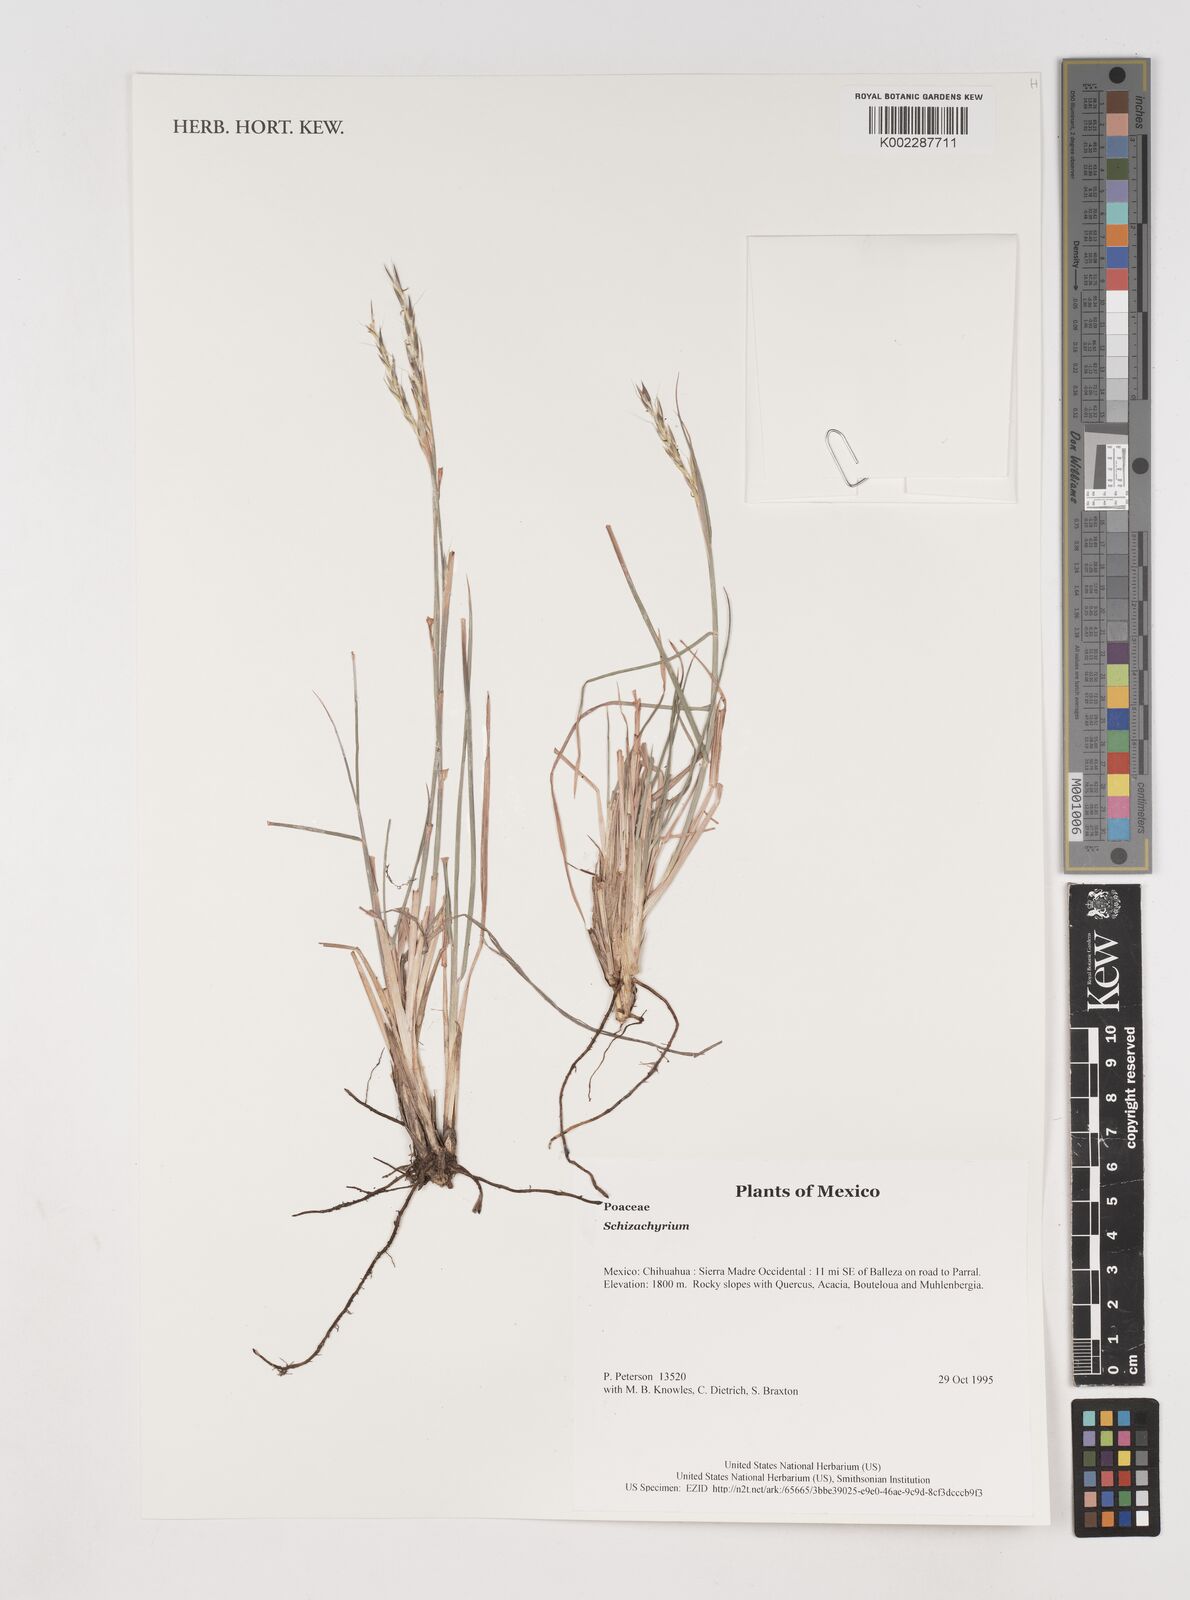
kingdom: Plantae
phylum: Tracheophyta
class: Liliopsida
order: Poales
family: Poaceae
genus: Schizachyrium
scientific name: Schizachyrium
